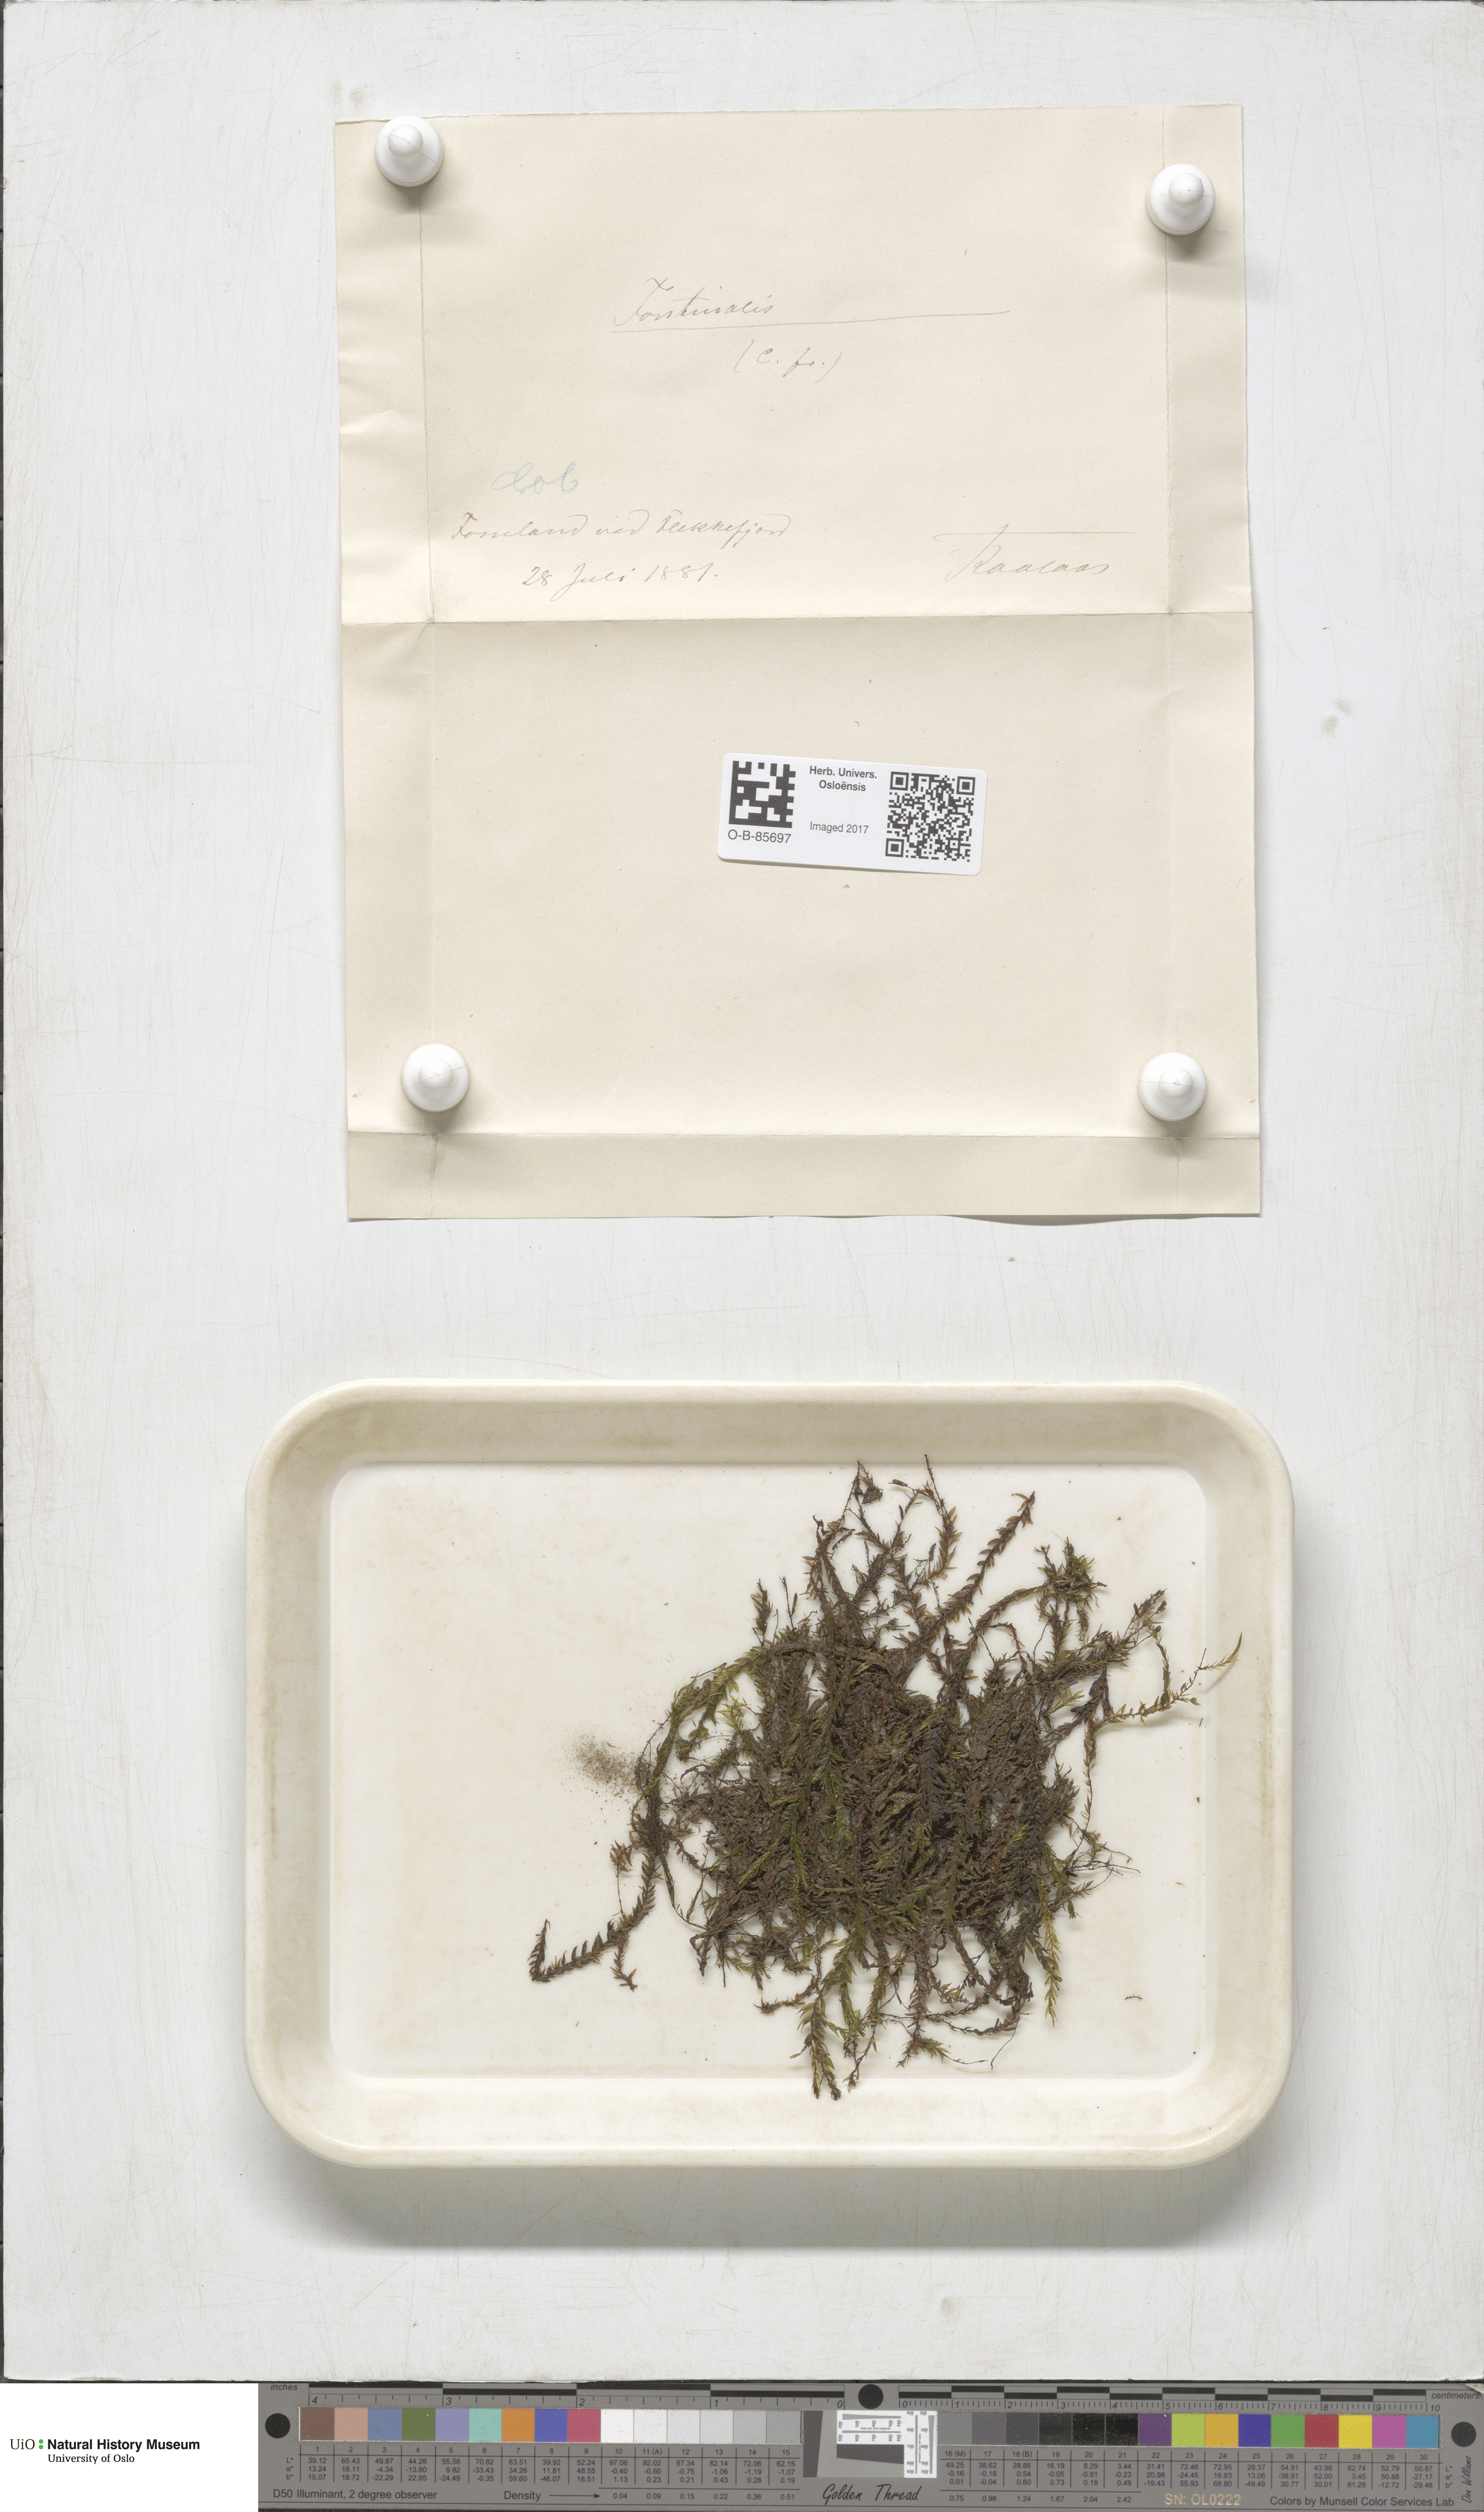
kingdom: Plantae
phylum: Bryophyta
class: Bryopsida
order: Hypnales
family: Fontinalaceae
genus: Fontinalis
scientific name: Fontinalis
